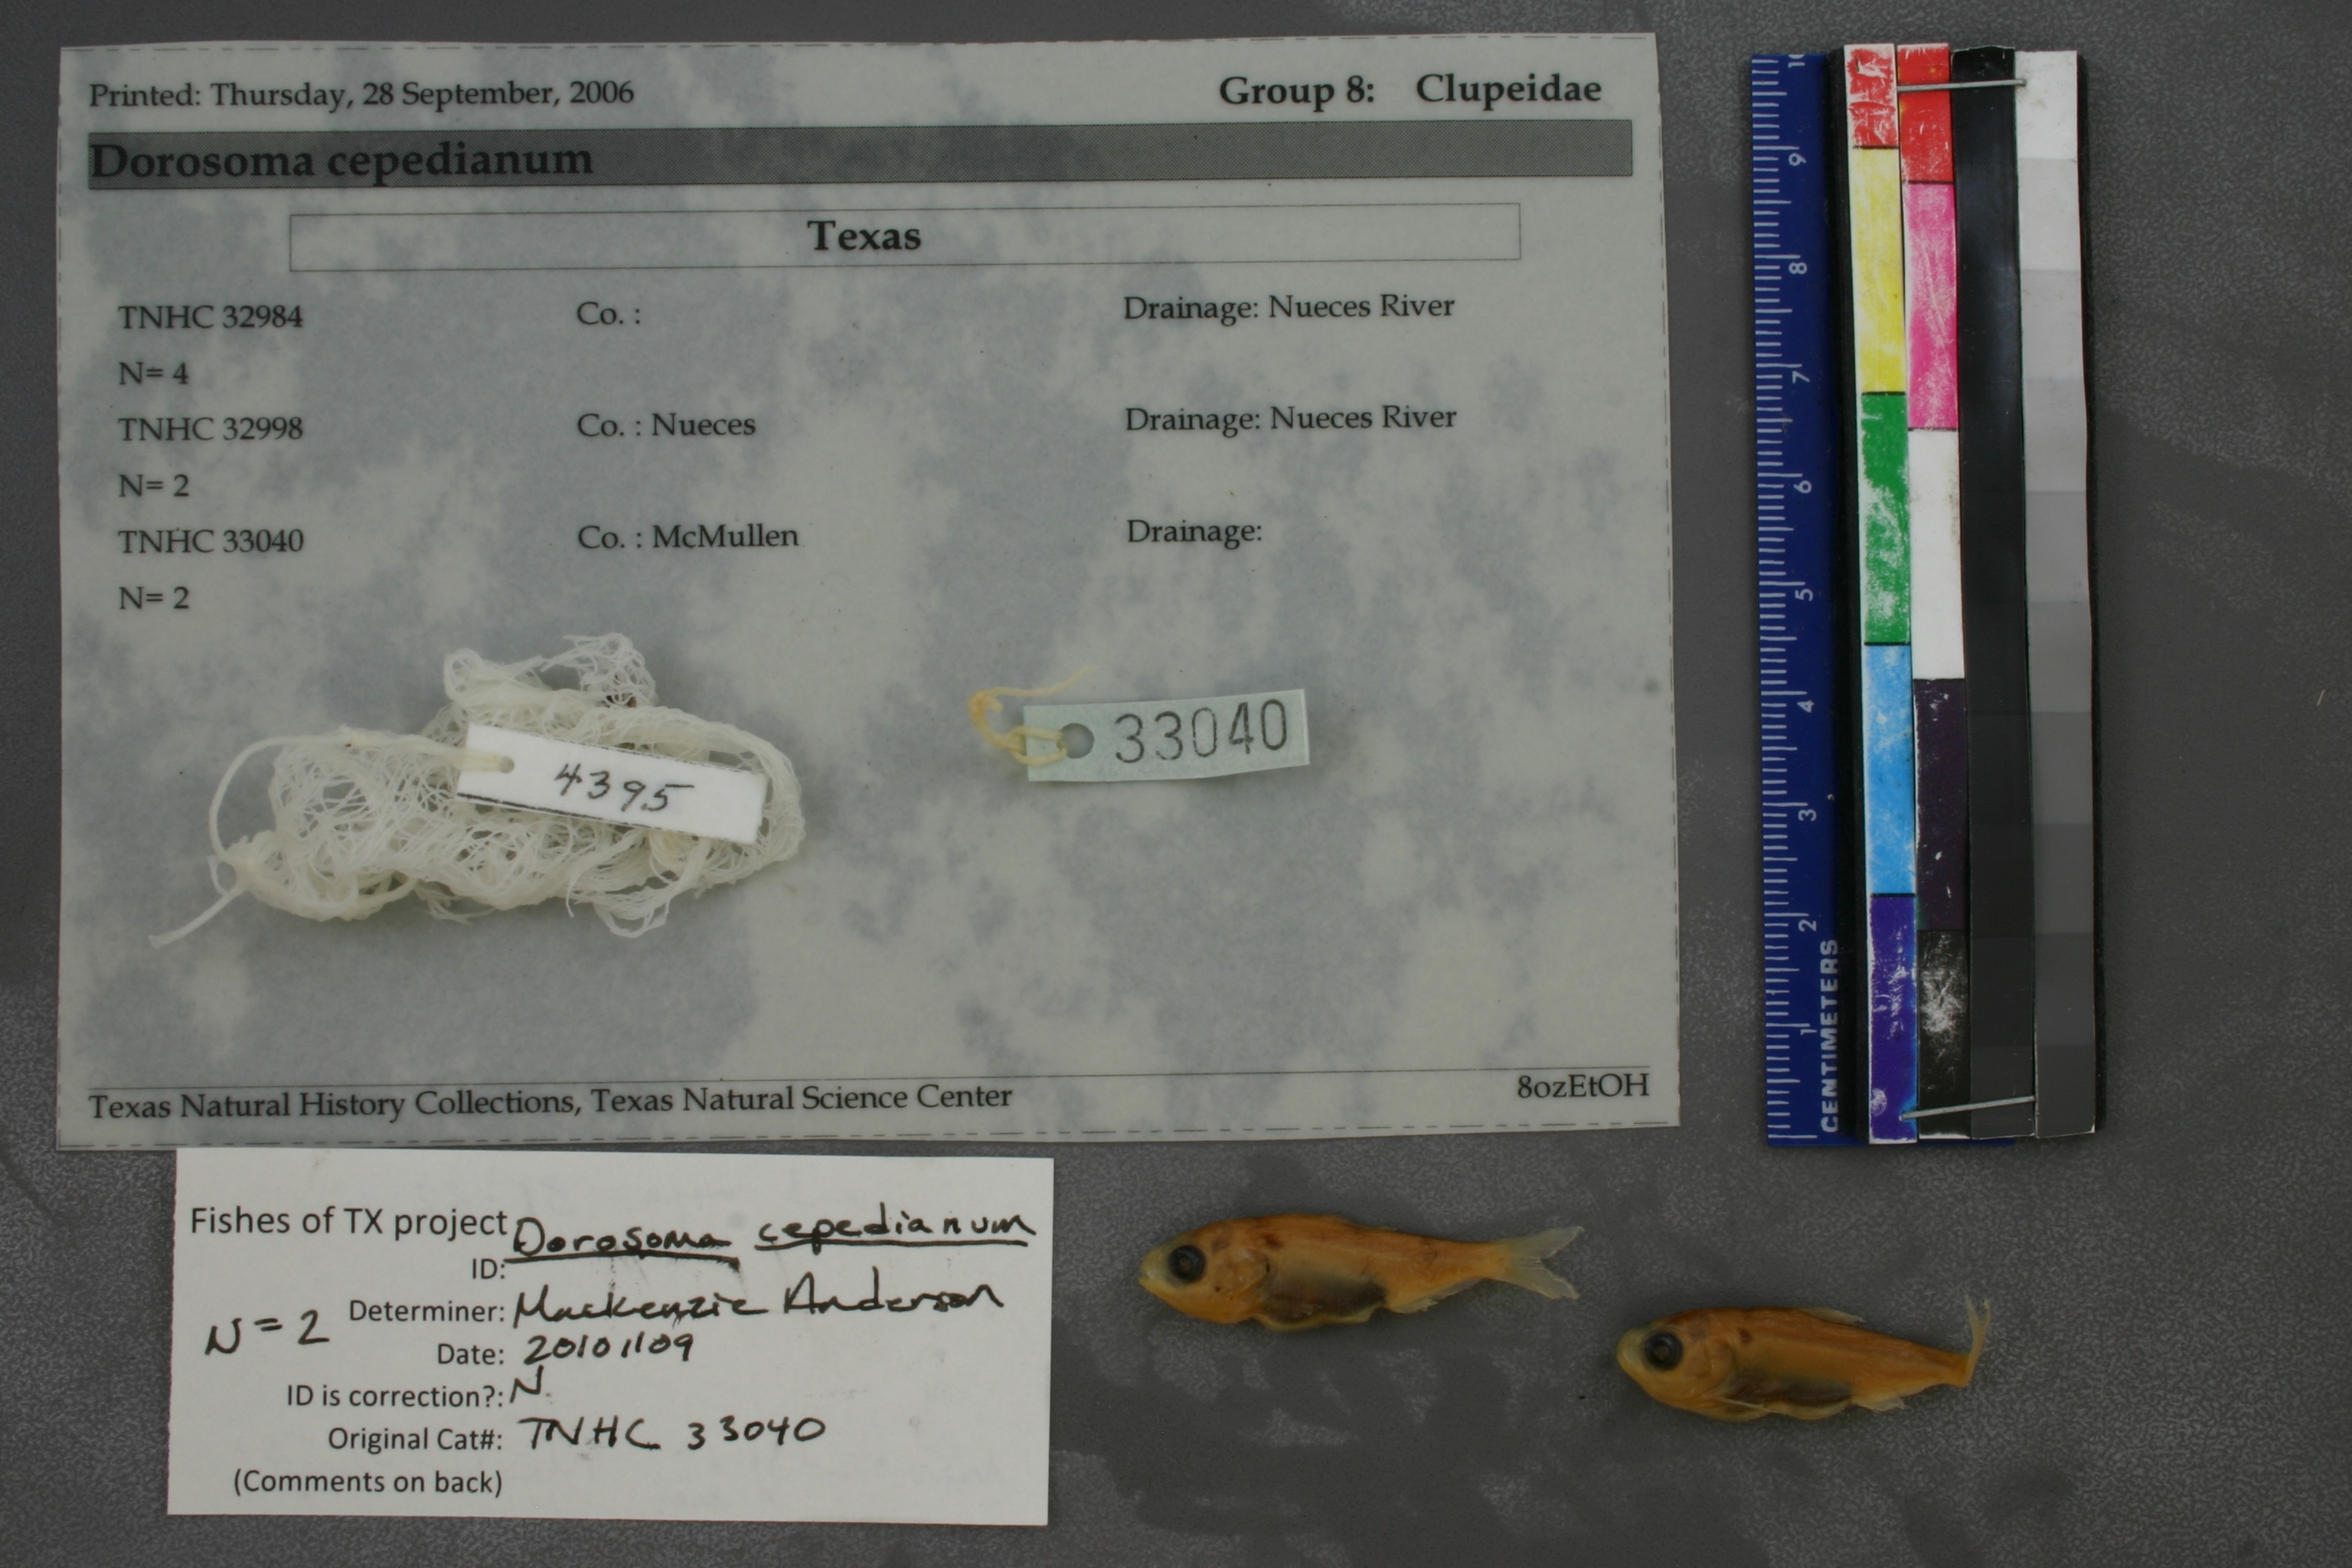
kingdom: Animalia
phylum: Chordata
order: Clupeiformes
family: Clupeidae
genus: Dorosoma
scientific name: Dorosoma cepedianum
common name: Gizzard shad
